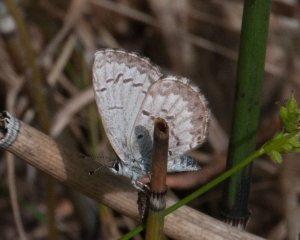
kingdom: Animalia
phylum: Arthropoda
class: Insecta
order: Lepidoptera
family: Lycaenidae
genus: Celastrina
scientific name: Celastrina lucia
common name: Northern Spring Azure
